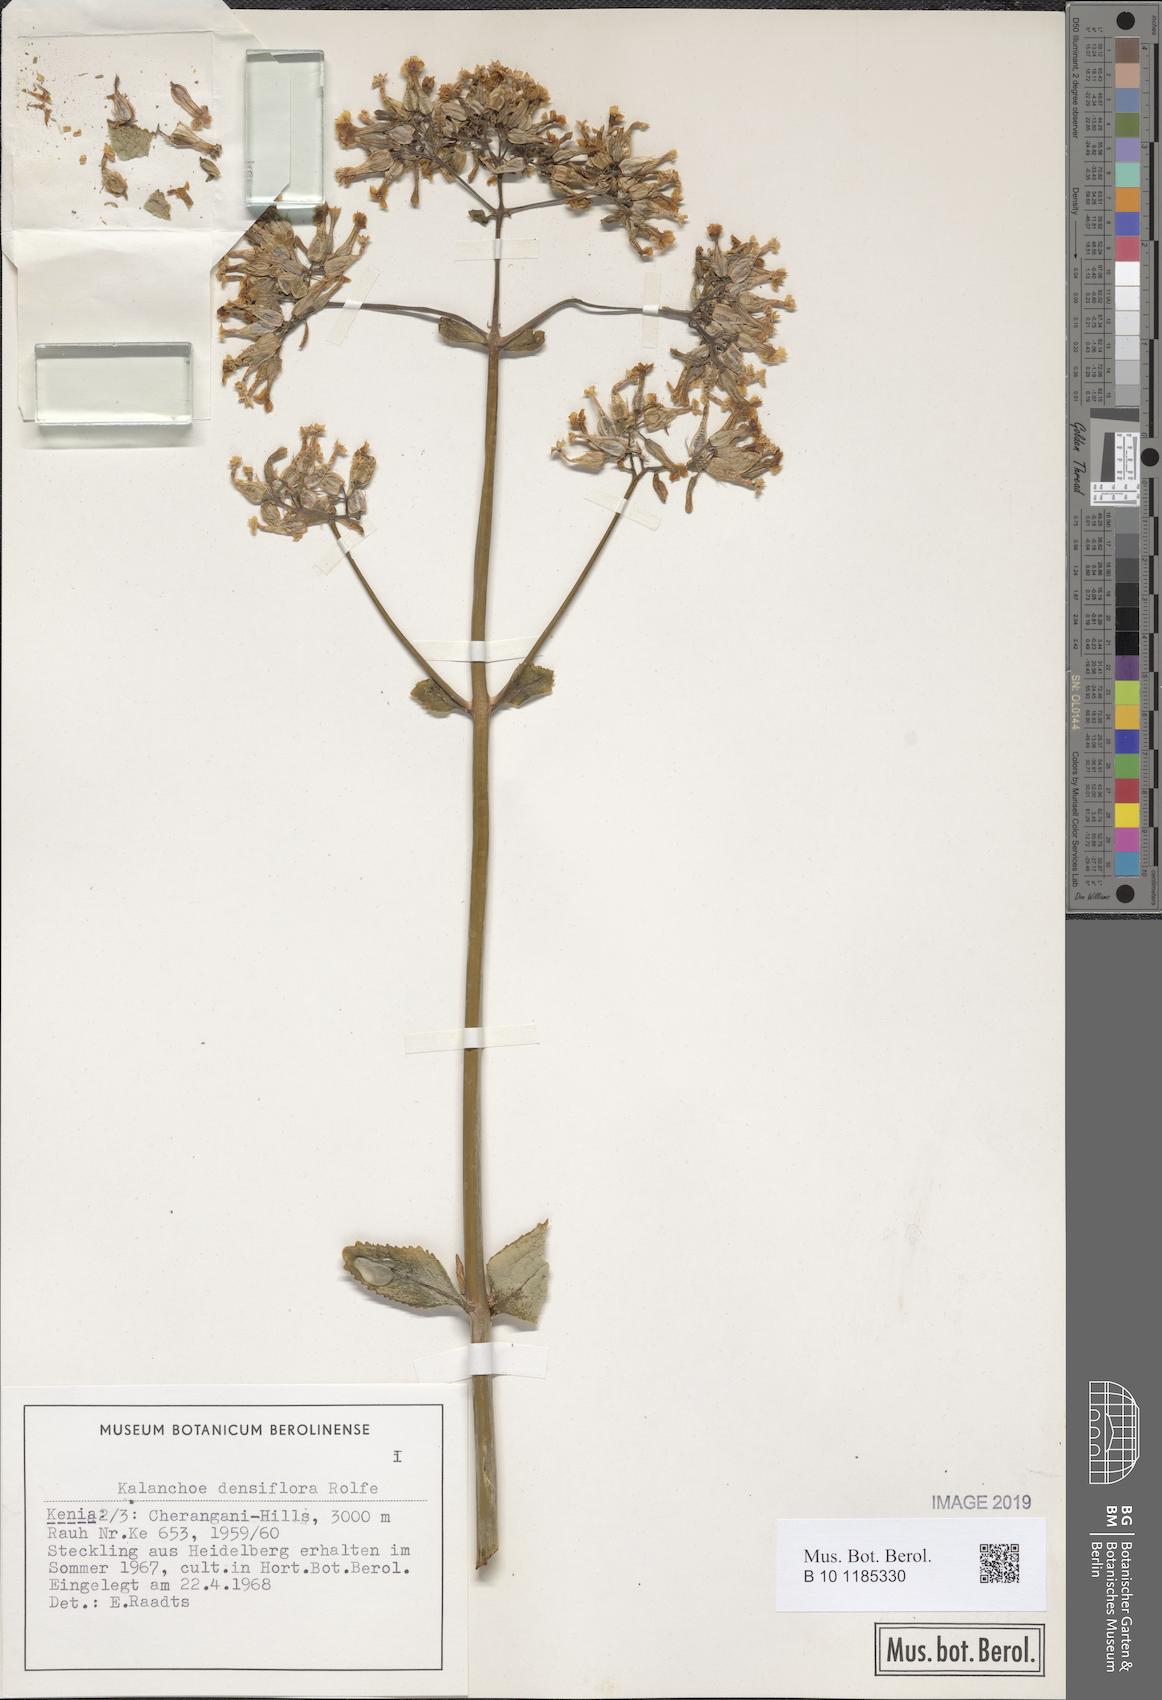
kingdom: Plantae
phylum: Tracheophyta
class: Magnoliopsida
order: Saxifragales
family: Crassulaceae
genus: Kalanchoe
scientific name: Kalanchoe densiflora
